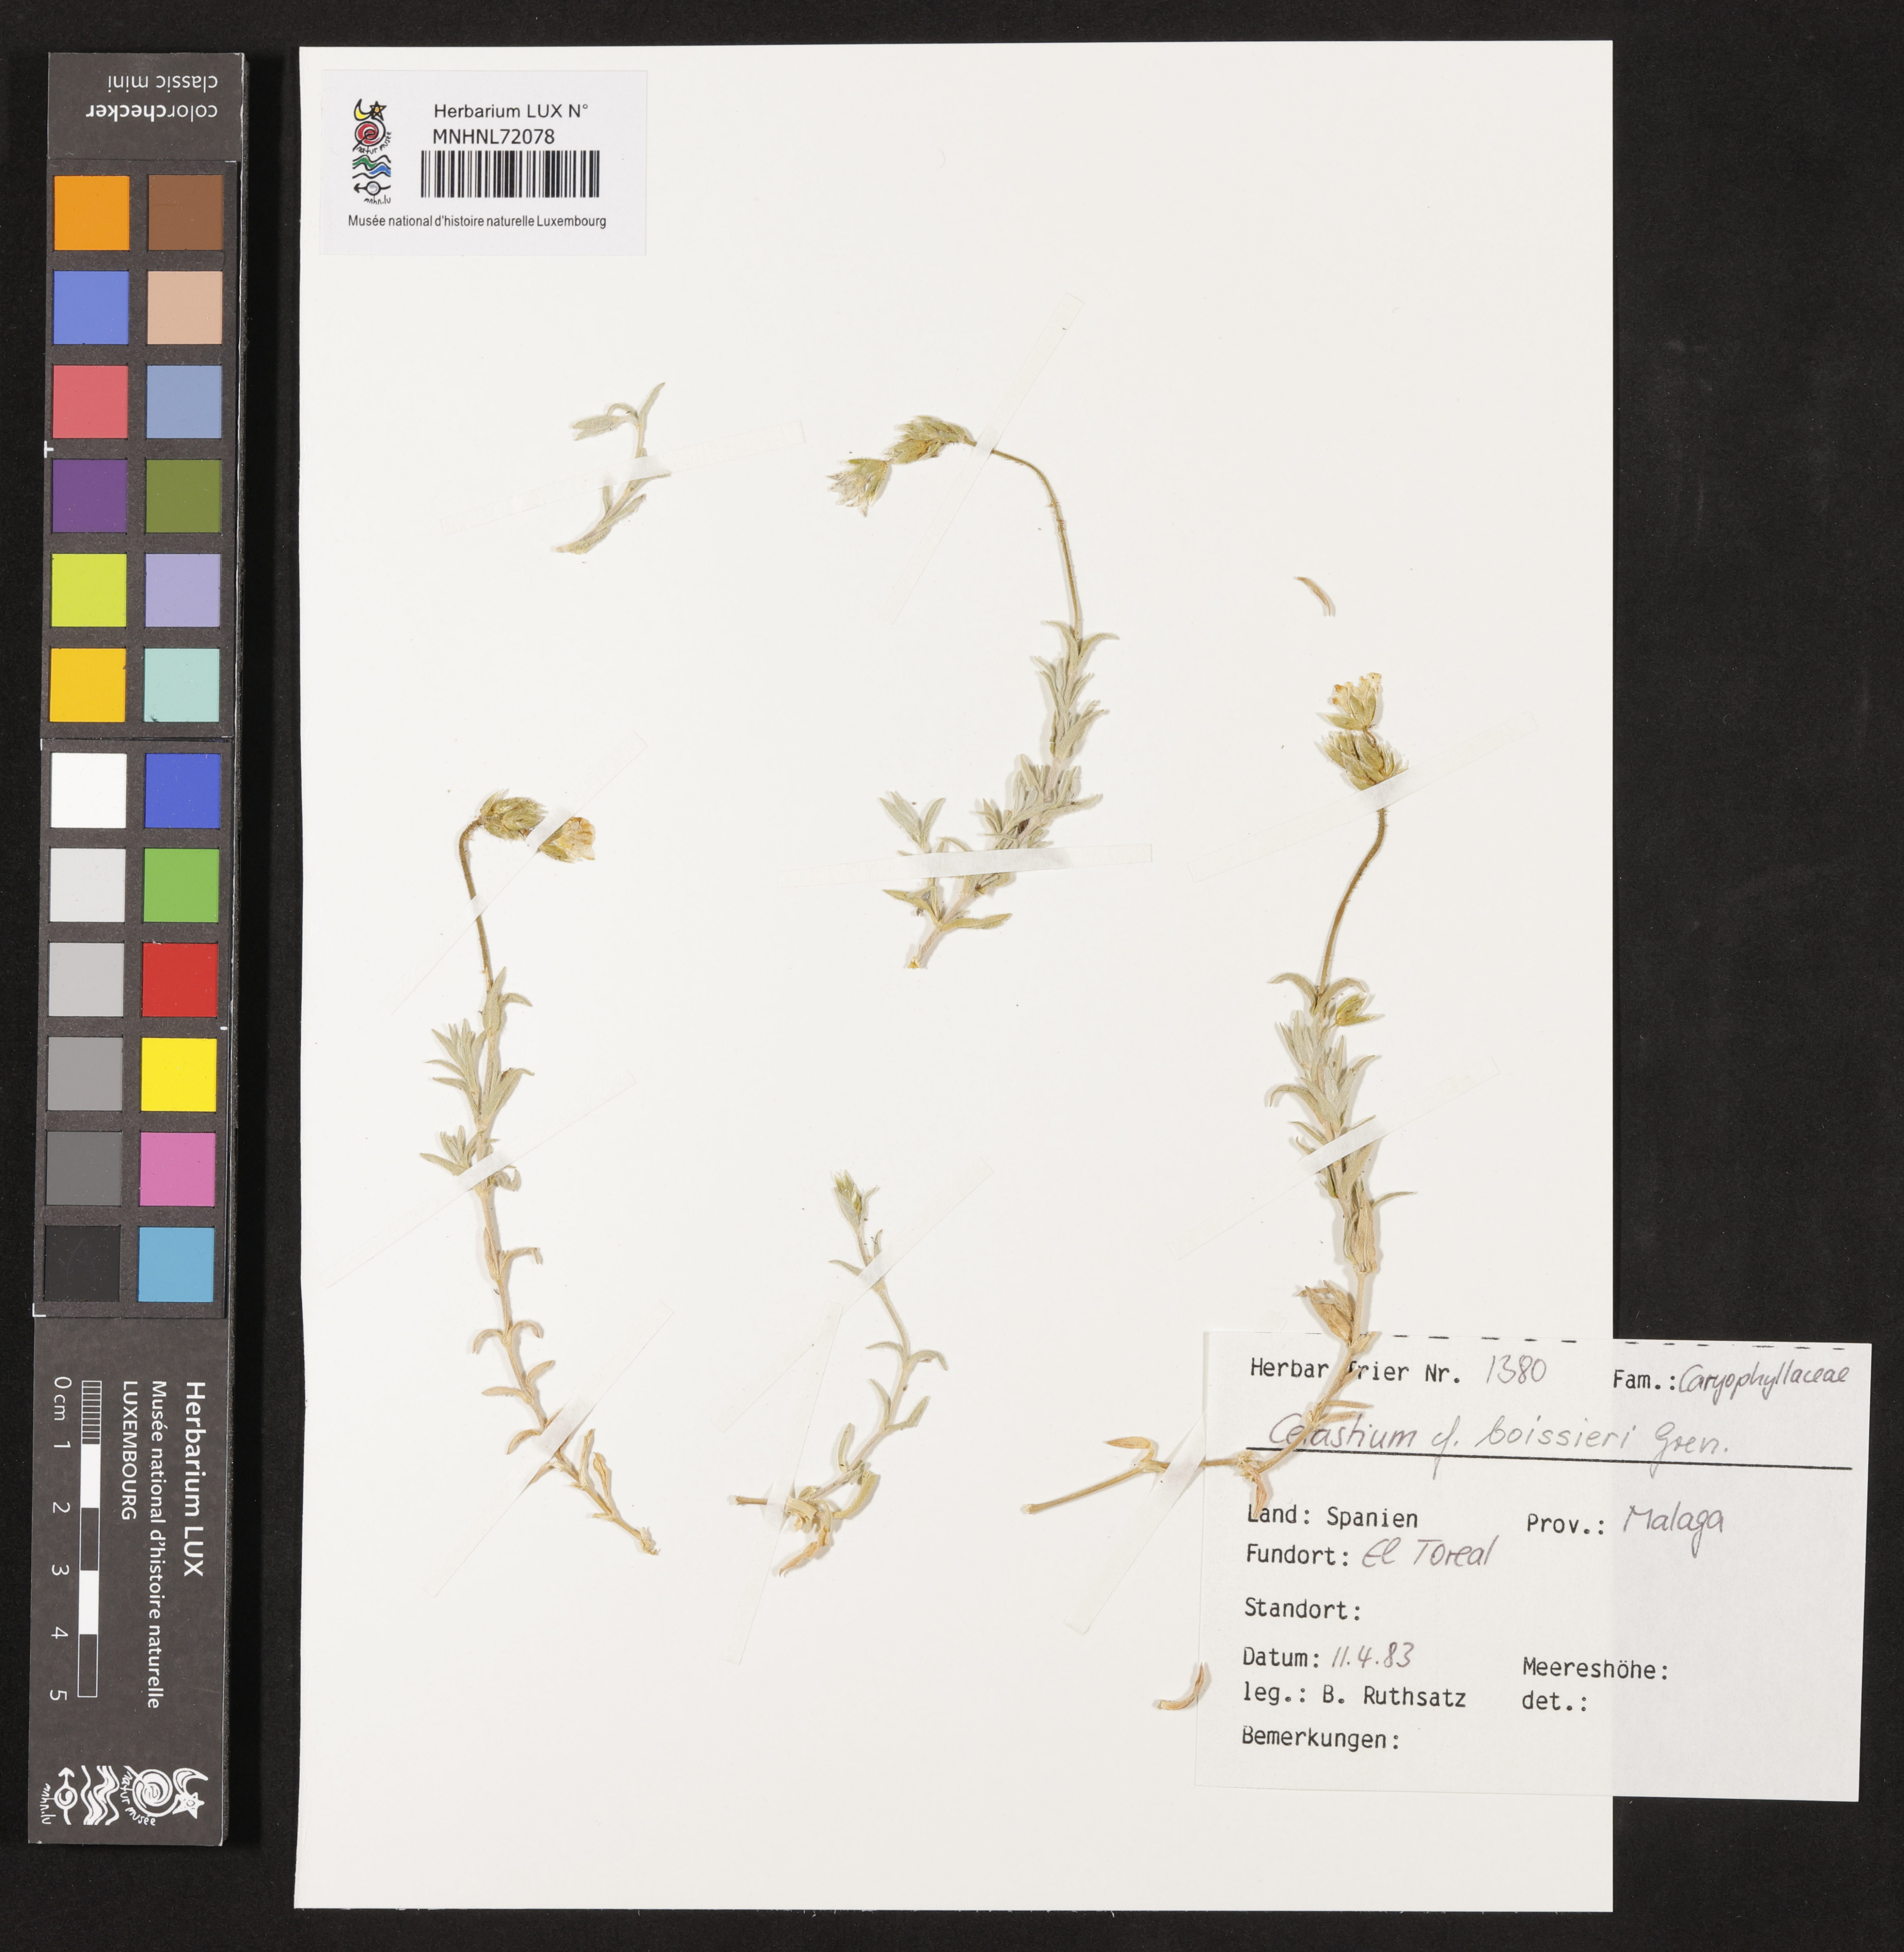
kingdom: Plantae
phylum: Tracheophyta
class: Magnoliopsida
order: Caryophyllales
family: Caryophyllaceae
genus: Cerastium
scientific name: Cerastium gibraltaricum
